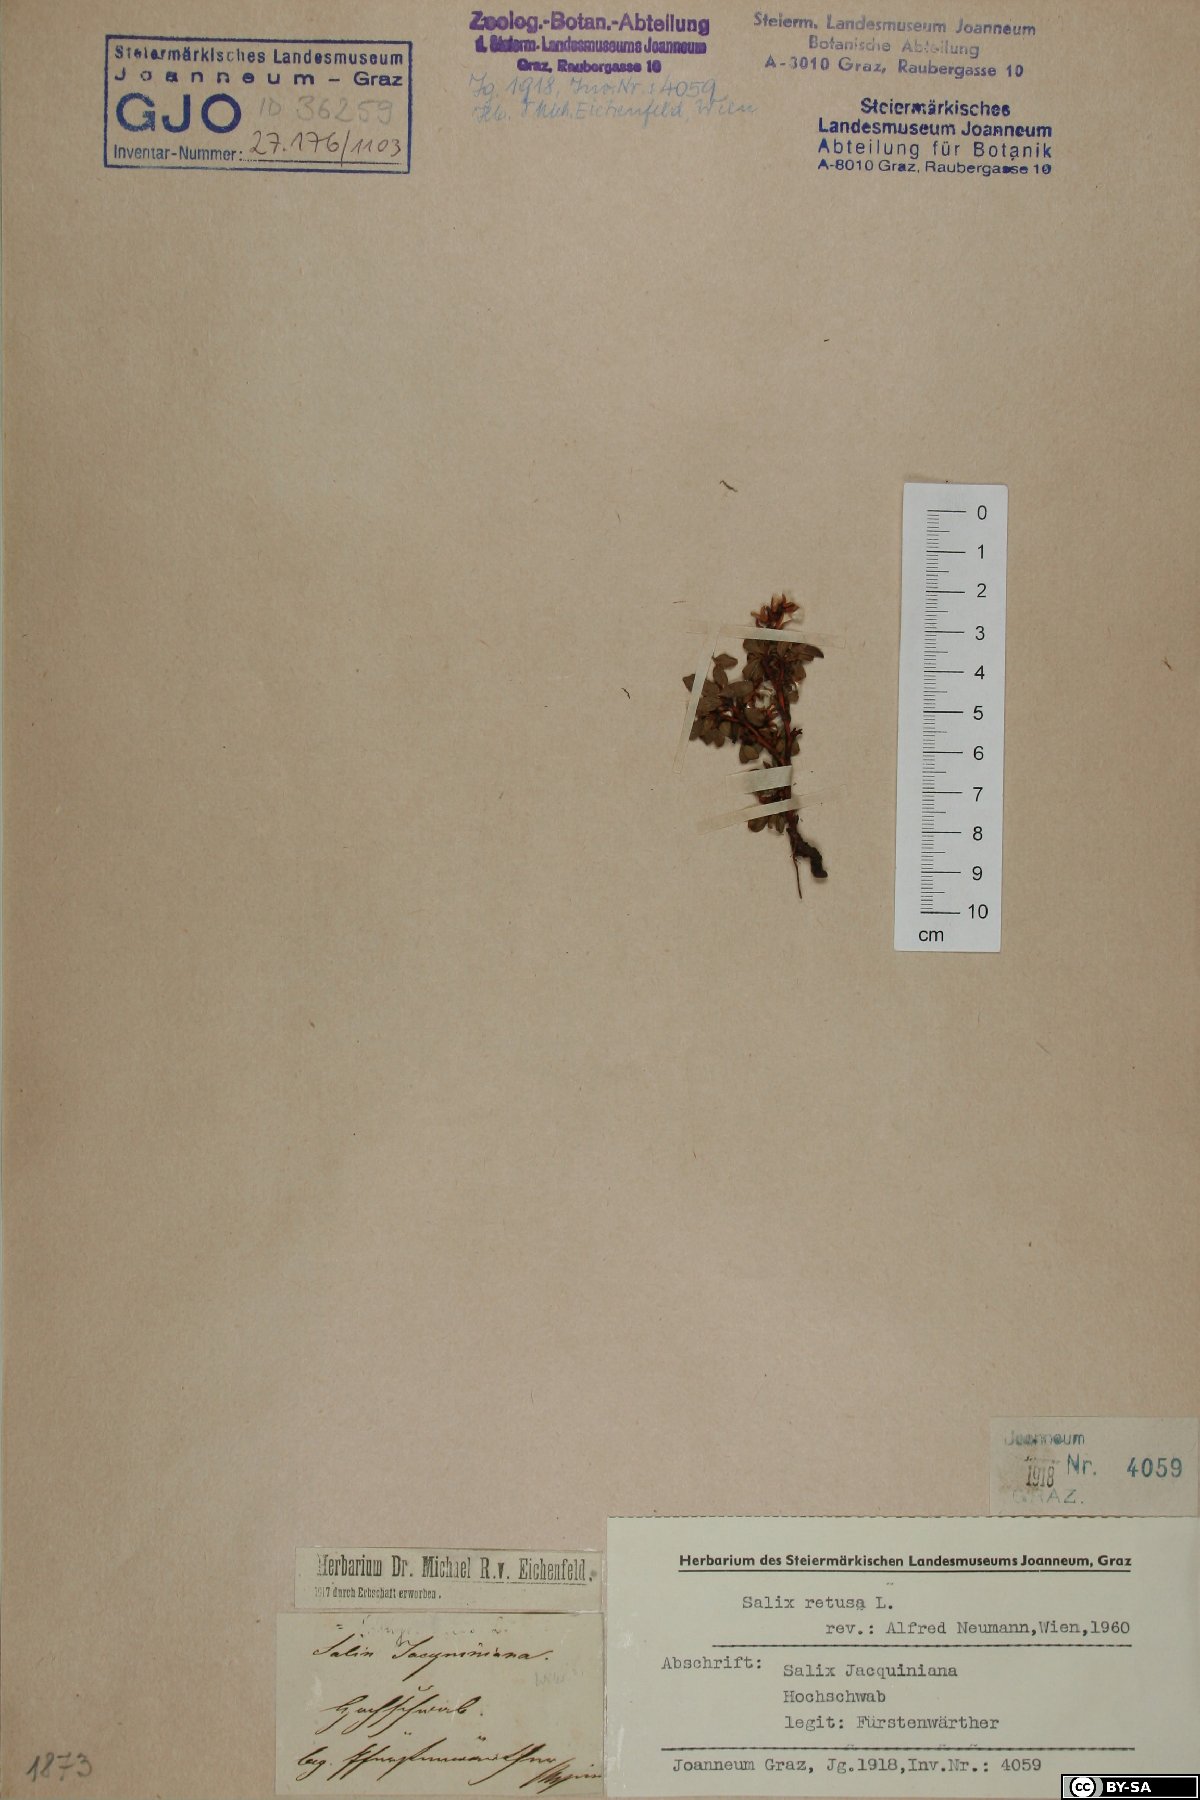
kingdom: Plantae
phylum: Tracheophyta
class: Magnoliopsida
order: Malpighiales
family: Salicaceae
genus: Salix
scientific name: Salix retusa
